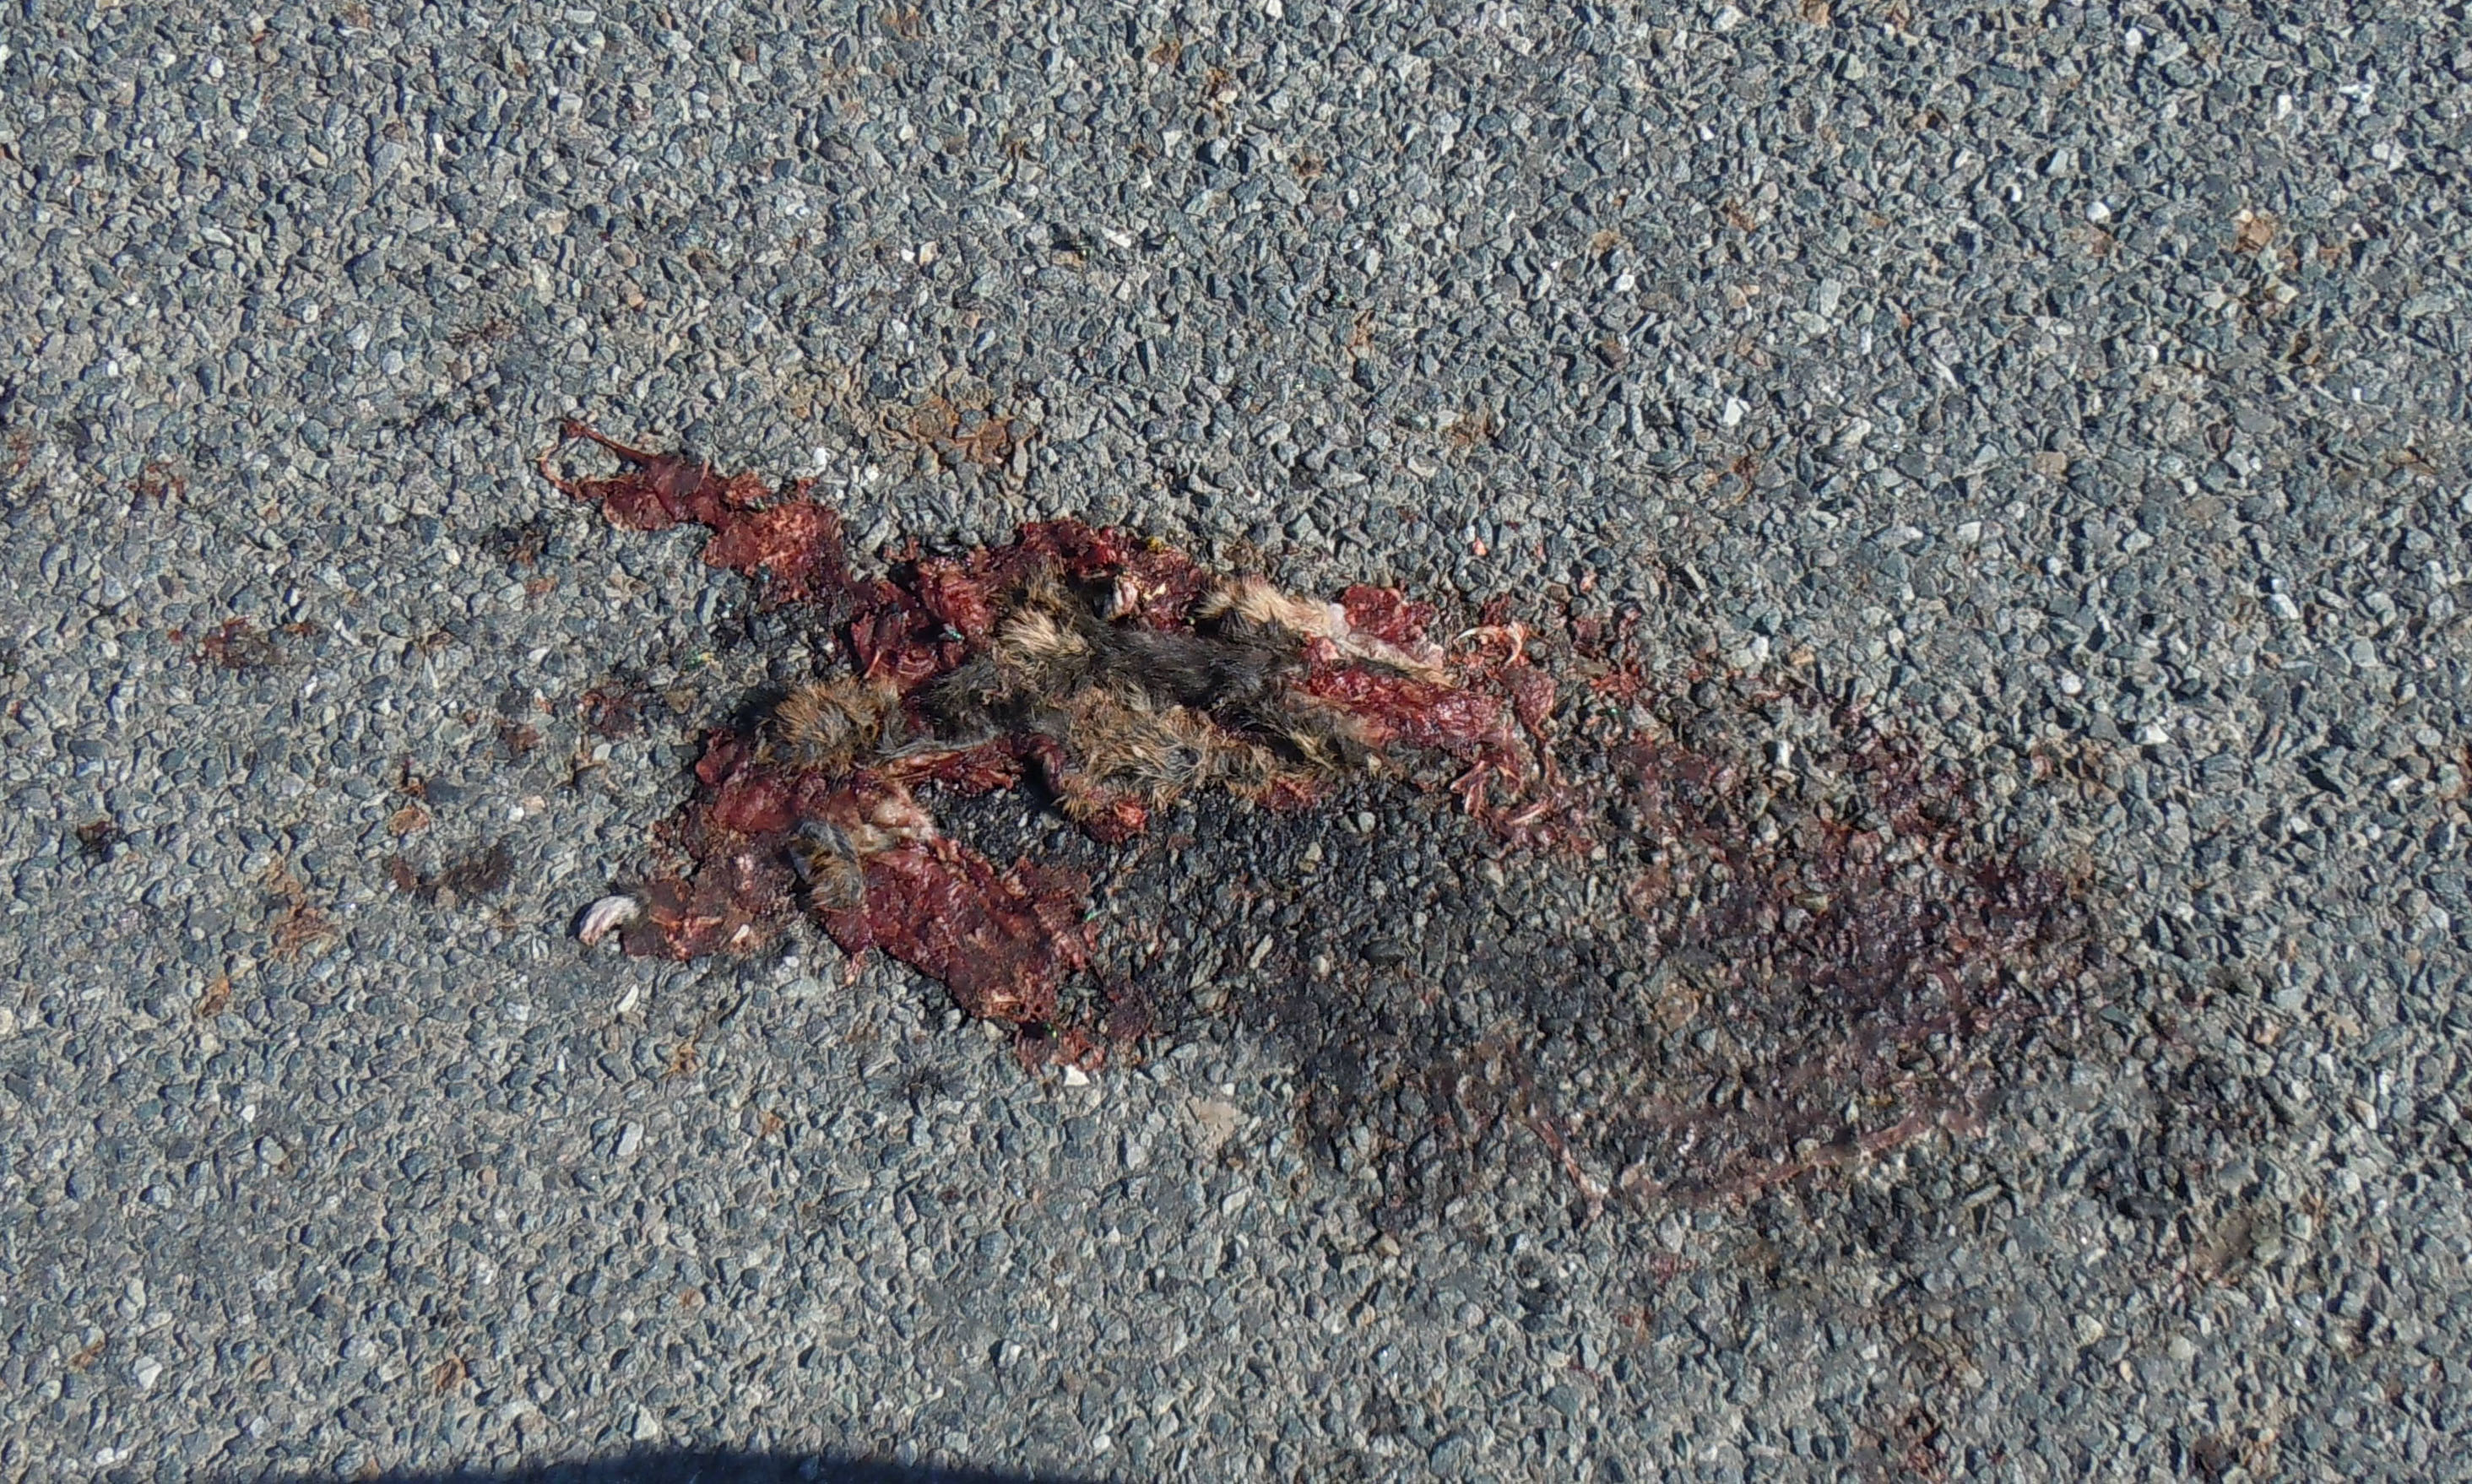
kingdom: Animalia
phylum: Chordata
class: Mammalia
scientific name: Mammalia
